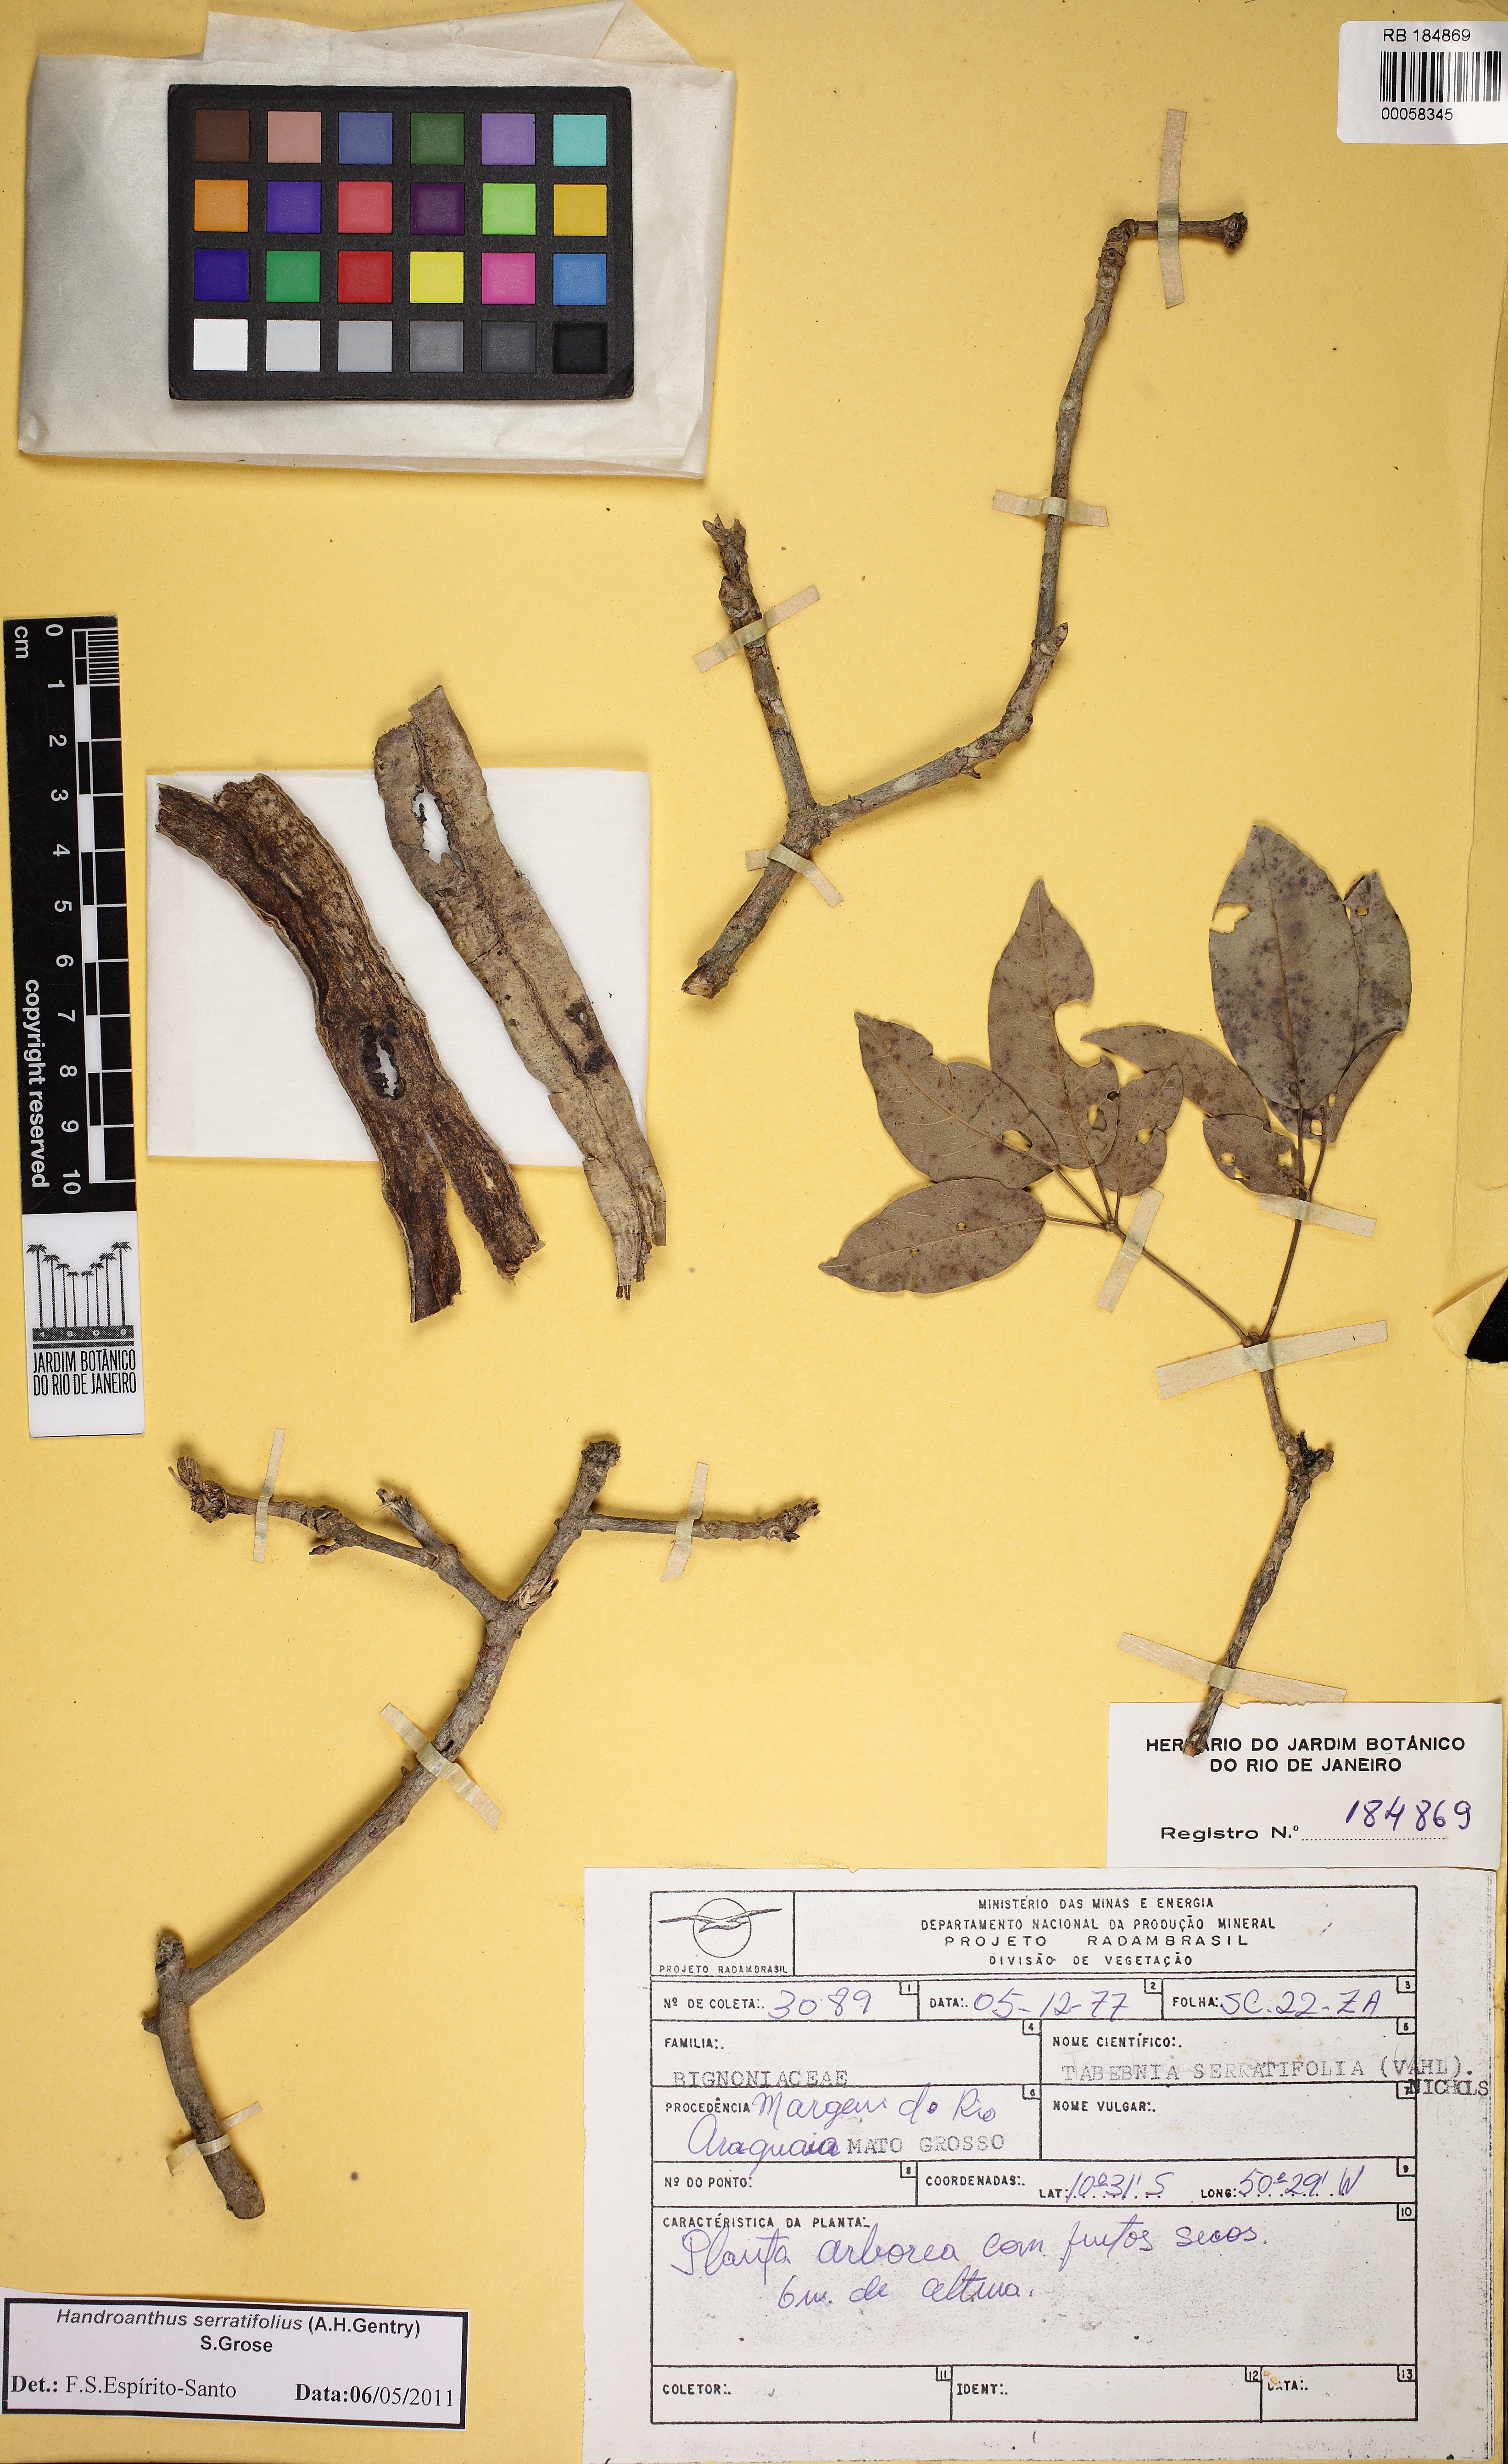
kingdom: Plantae
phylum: Tracheophyta
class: Magnoliopsida
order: Lamiales
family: Bignoniaceae
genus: Handroanthus
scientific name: Handroanthus serratifolius
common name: Yellow ipe
